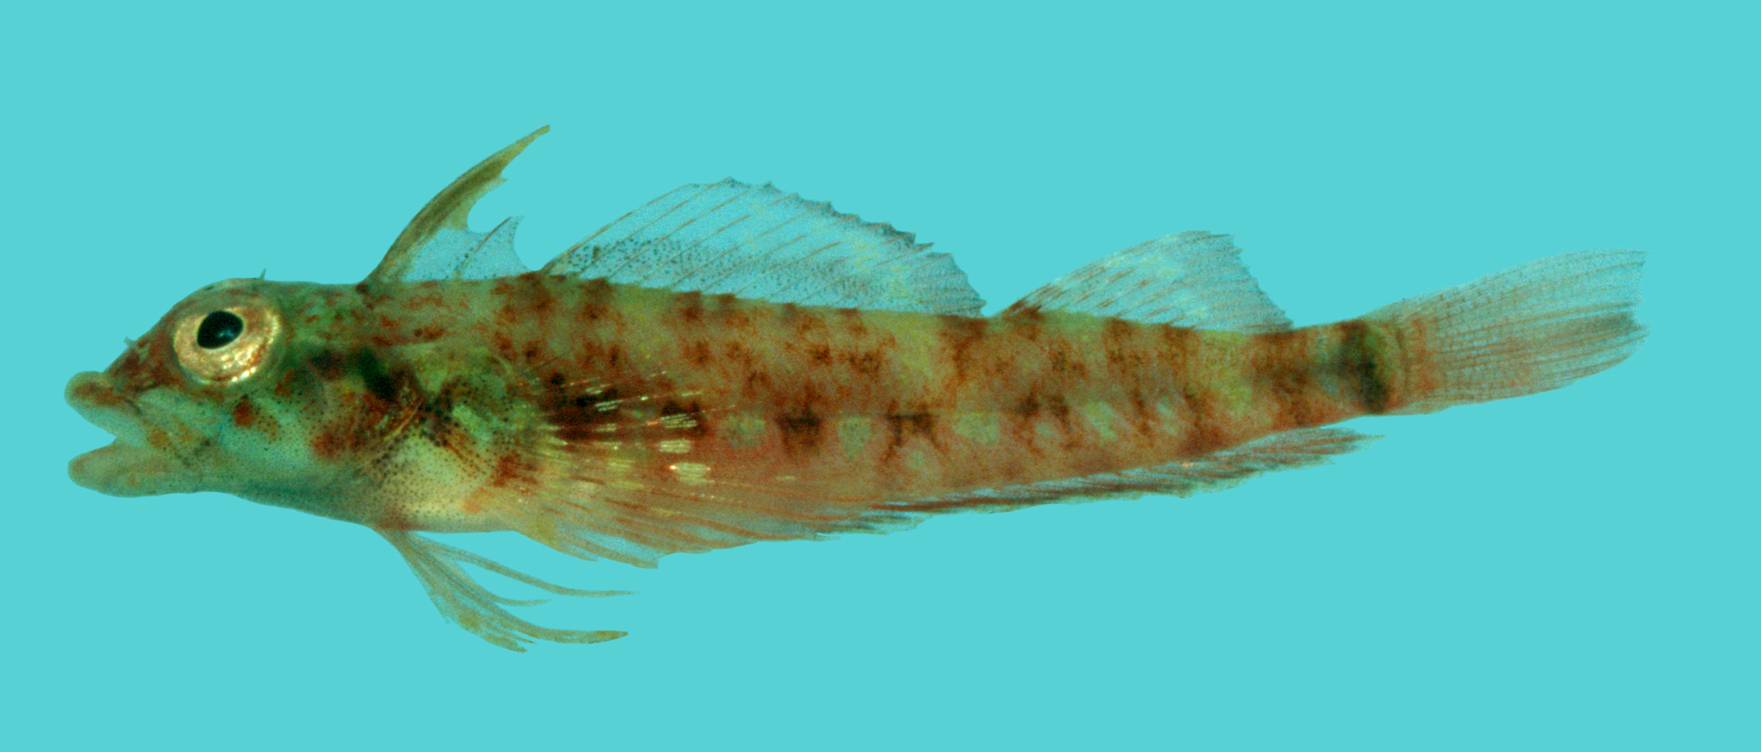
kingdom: Animalia
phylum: Chordata
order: Perciformes
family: Tripterygiidae
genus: Helcogramma
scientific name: Helcogramma microstigma
